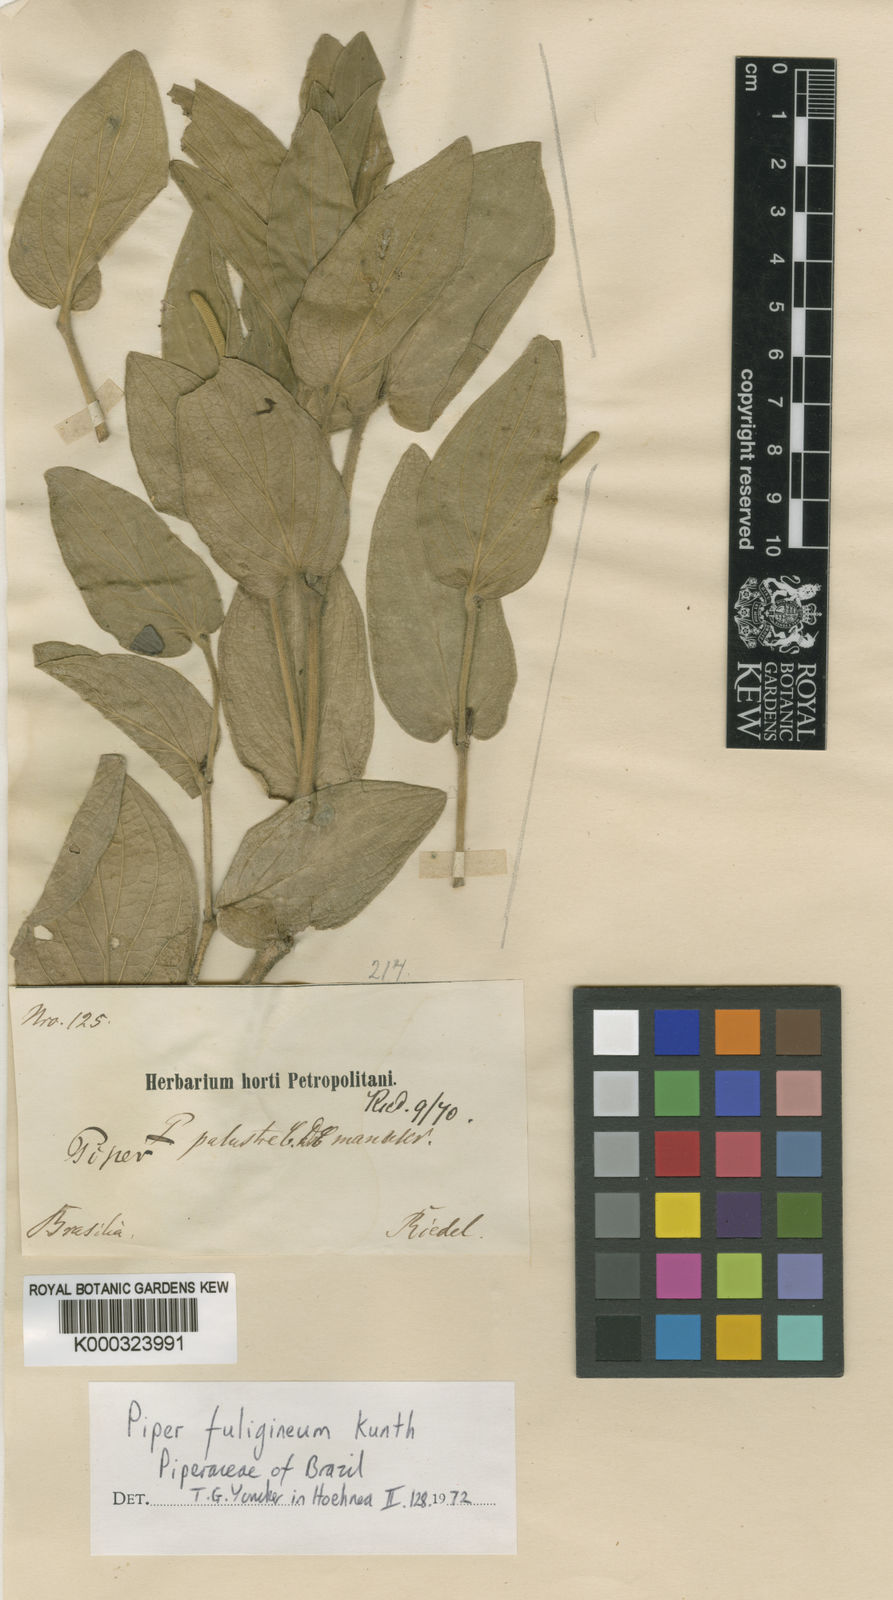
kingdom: Plantae
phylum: Tracheophyta
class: Magnoliopsida
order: Piperales
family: Piperaceae
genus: Piper
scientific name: Piper fuligineum
